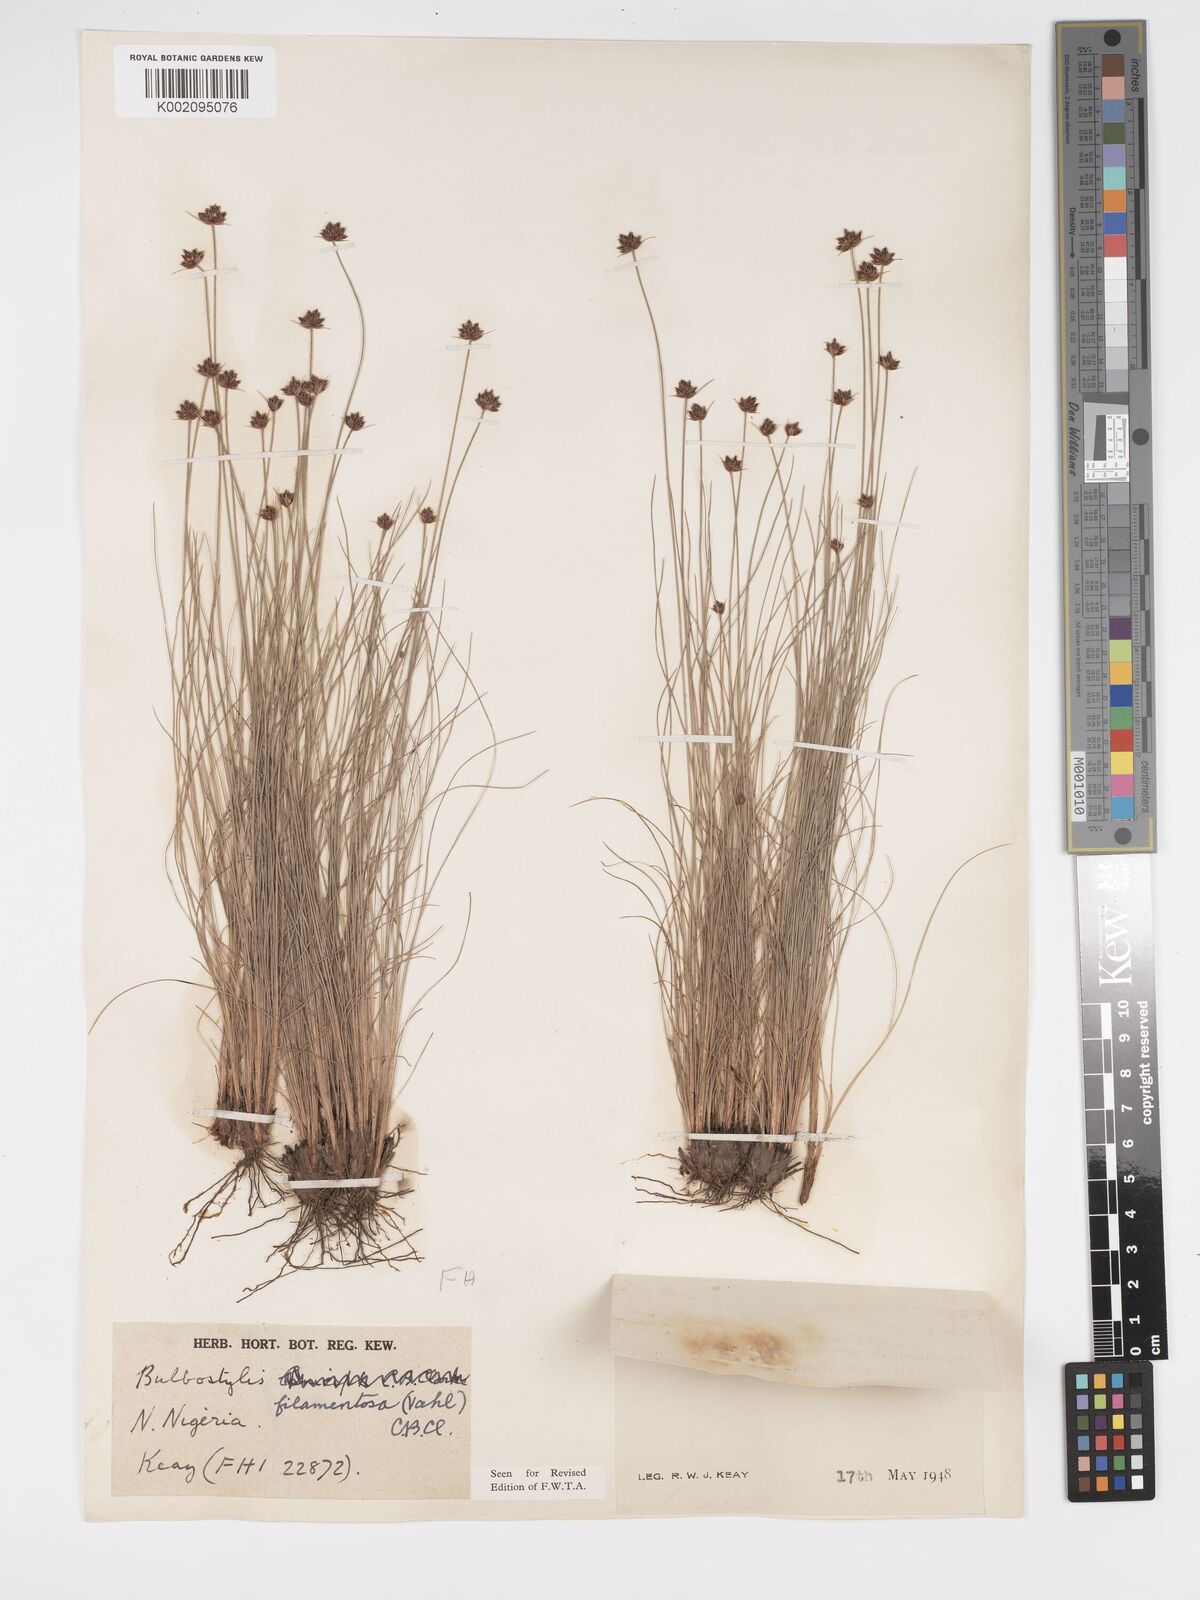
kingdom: Plantae
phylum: Tracheophyta
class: Liliopsida
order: Poales
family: Cyperaceae
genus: Bulbostylis
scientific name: Bulbostylis scabricaulis
